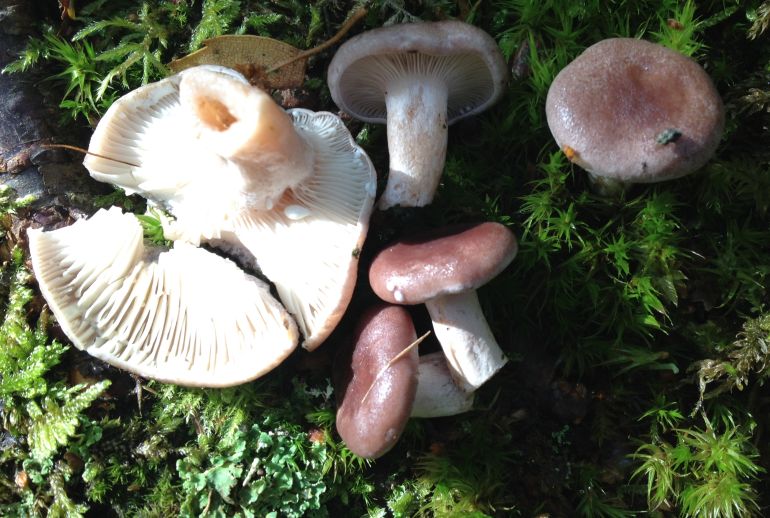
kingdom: Fungi
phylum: Basidiomycota
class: Agaricomycetes
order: Russulales
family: Russulaceae
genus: Lactarius
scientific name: Lactarius vietus
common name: violetgrå mælkehat
